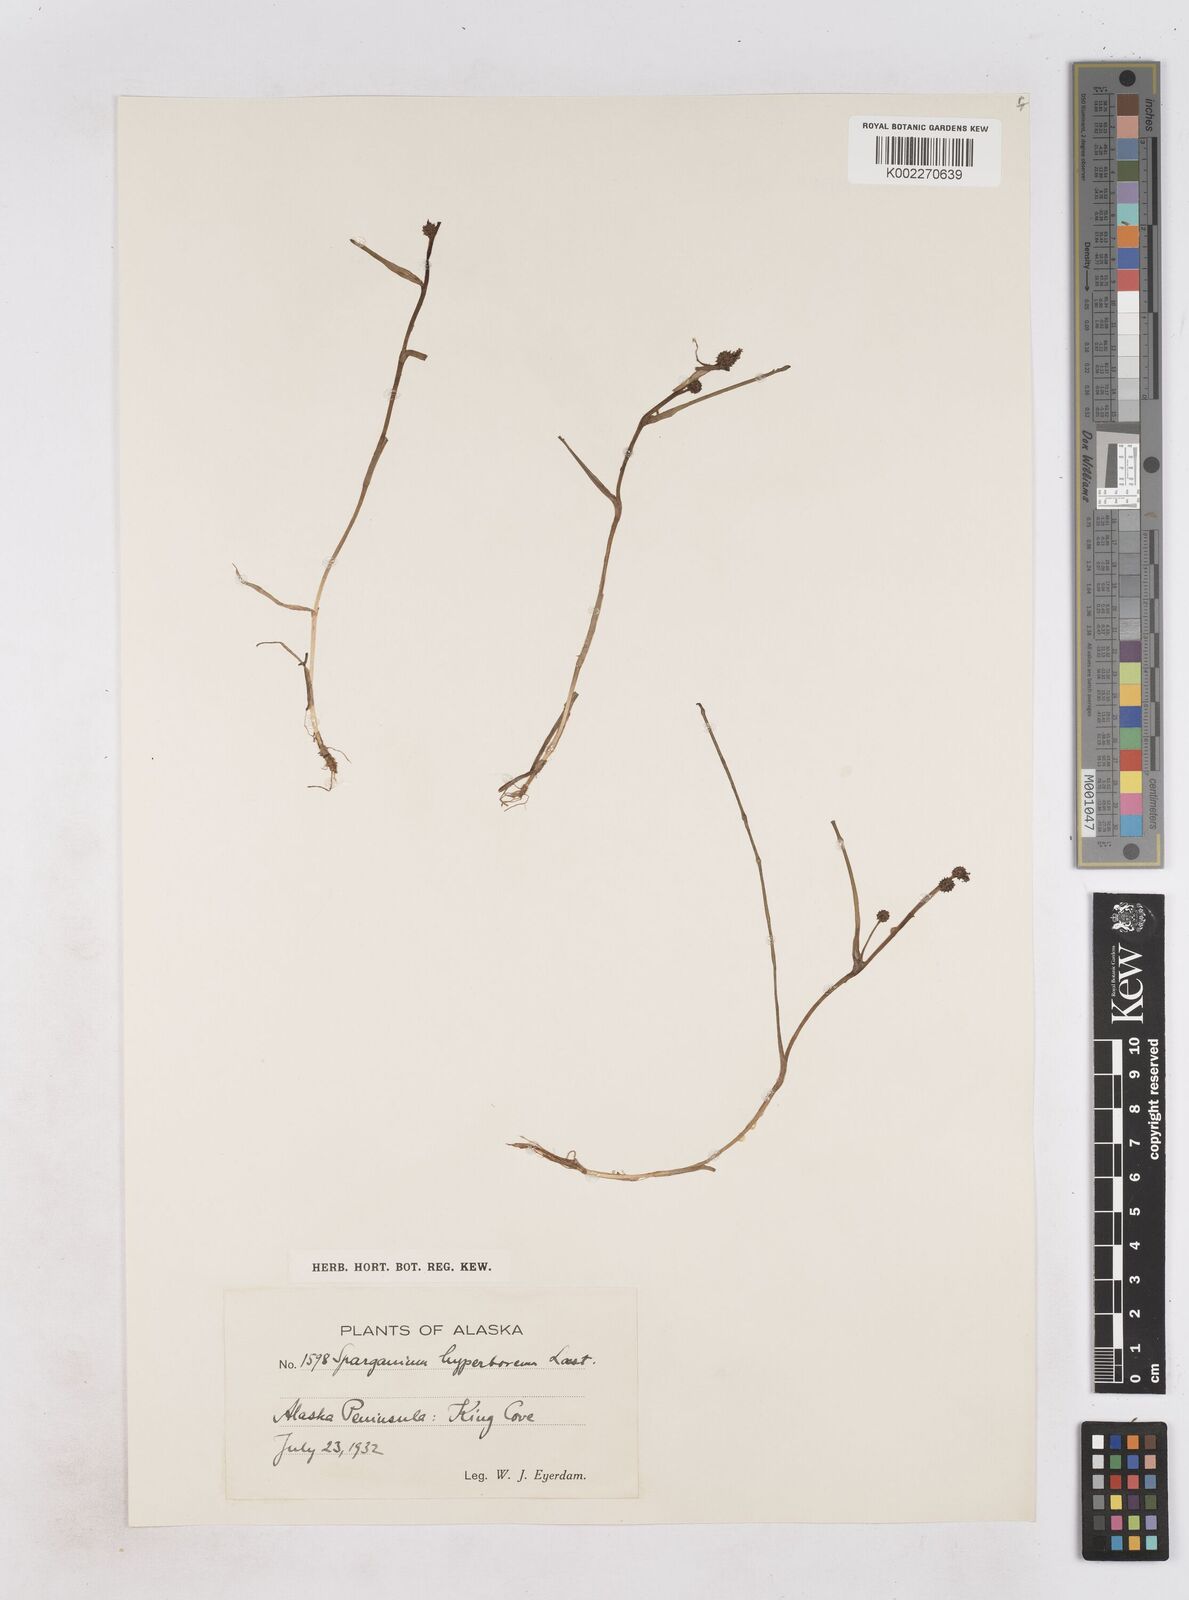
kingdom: Plantae
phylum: Tracheophyta
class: Liliopsida
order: Poales
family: Typhaceae
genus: Sparganium
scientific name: Sparganium hyperboreum
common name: Arctic burreed
